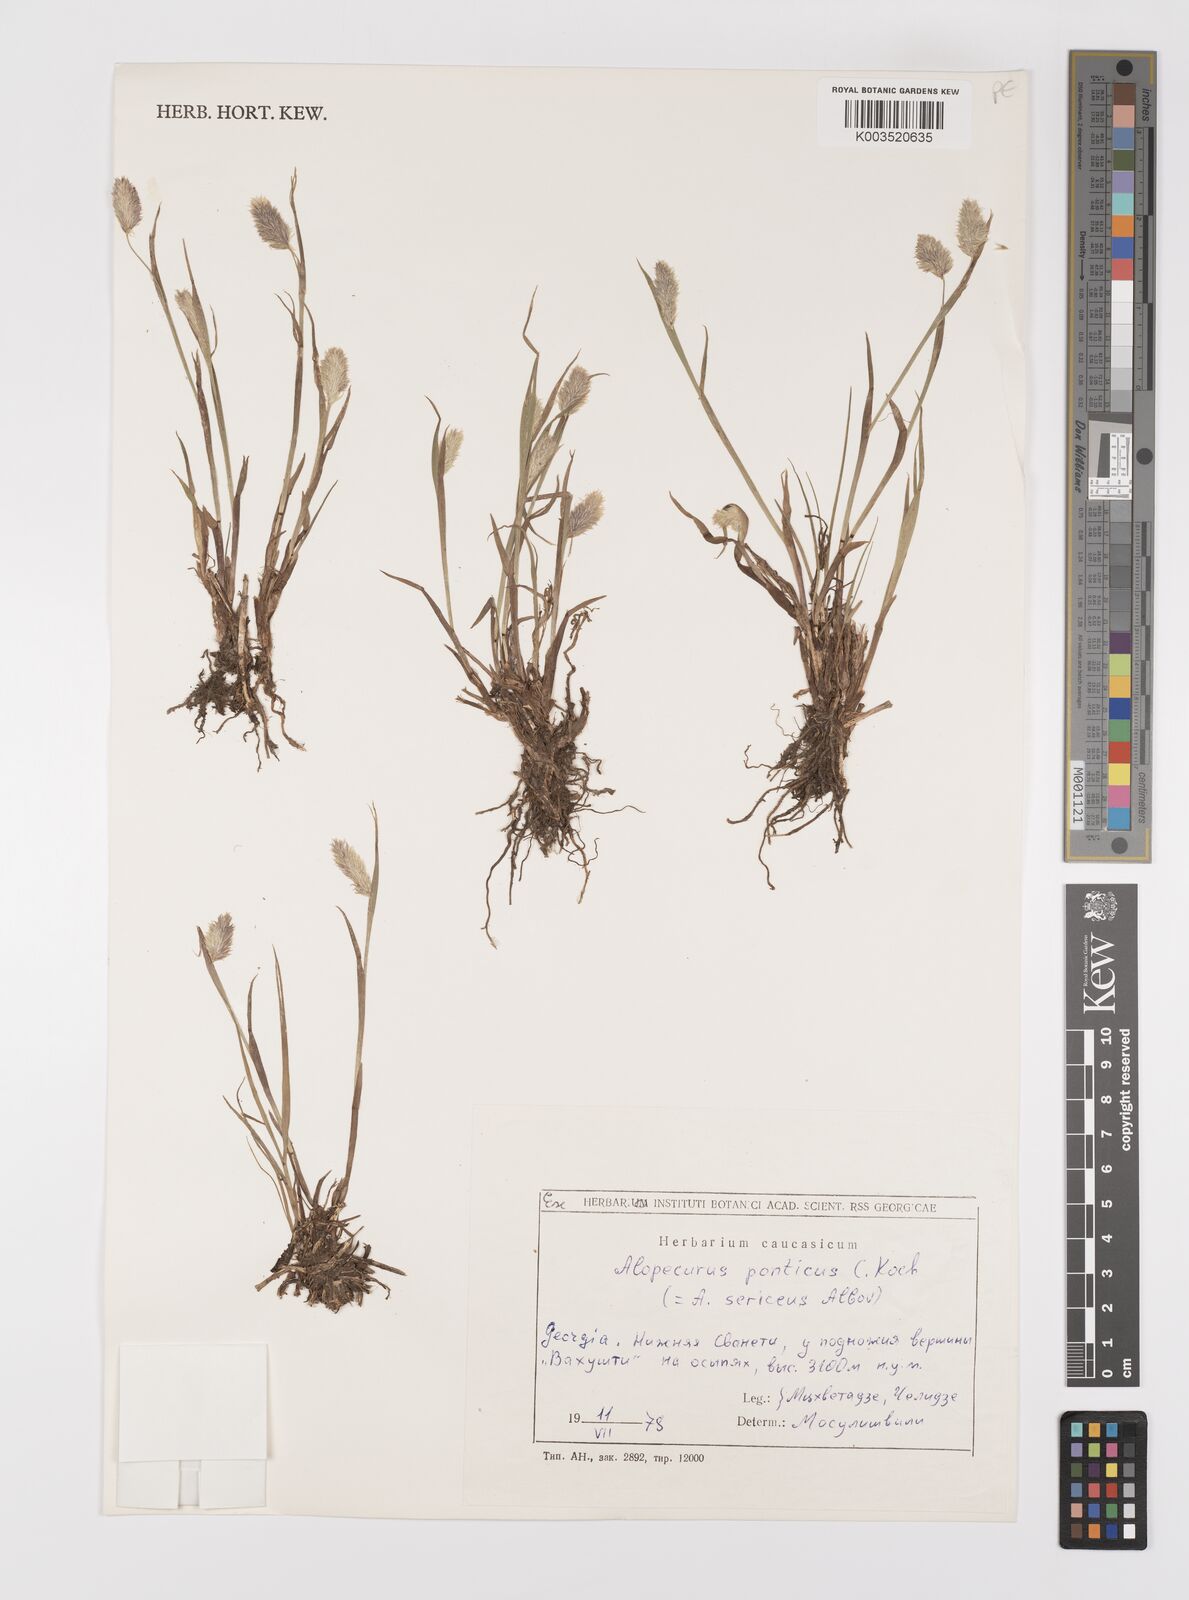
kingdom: Plantae
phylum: Tracheophyta
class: Liliopsida
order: Poales
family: Poaceae
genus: Alopecurus
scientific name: Alopecurus ponticus
